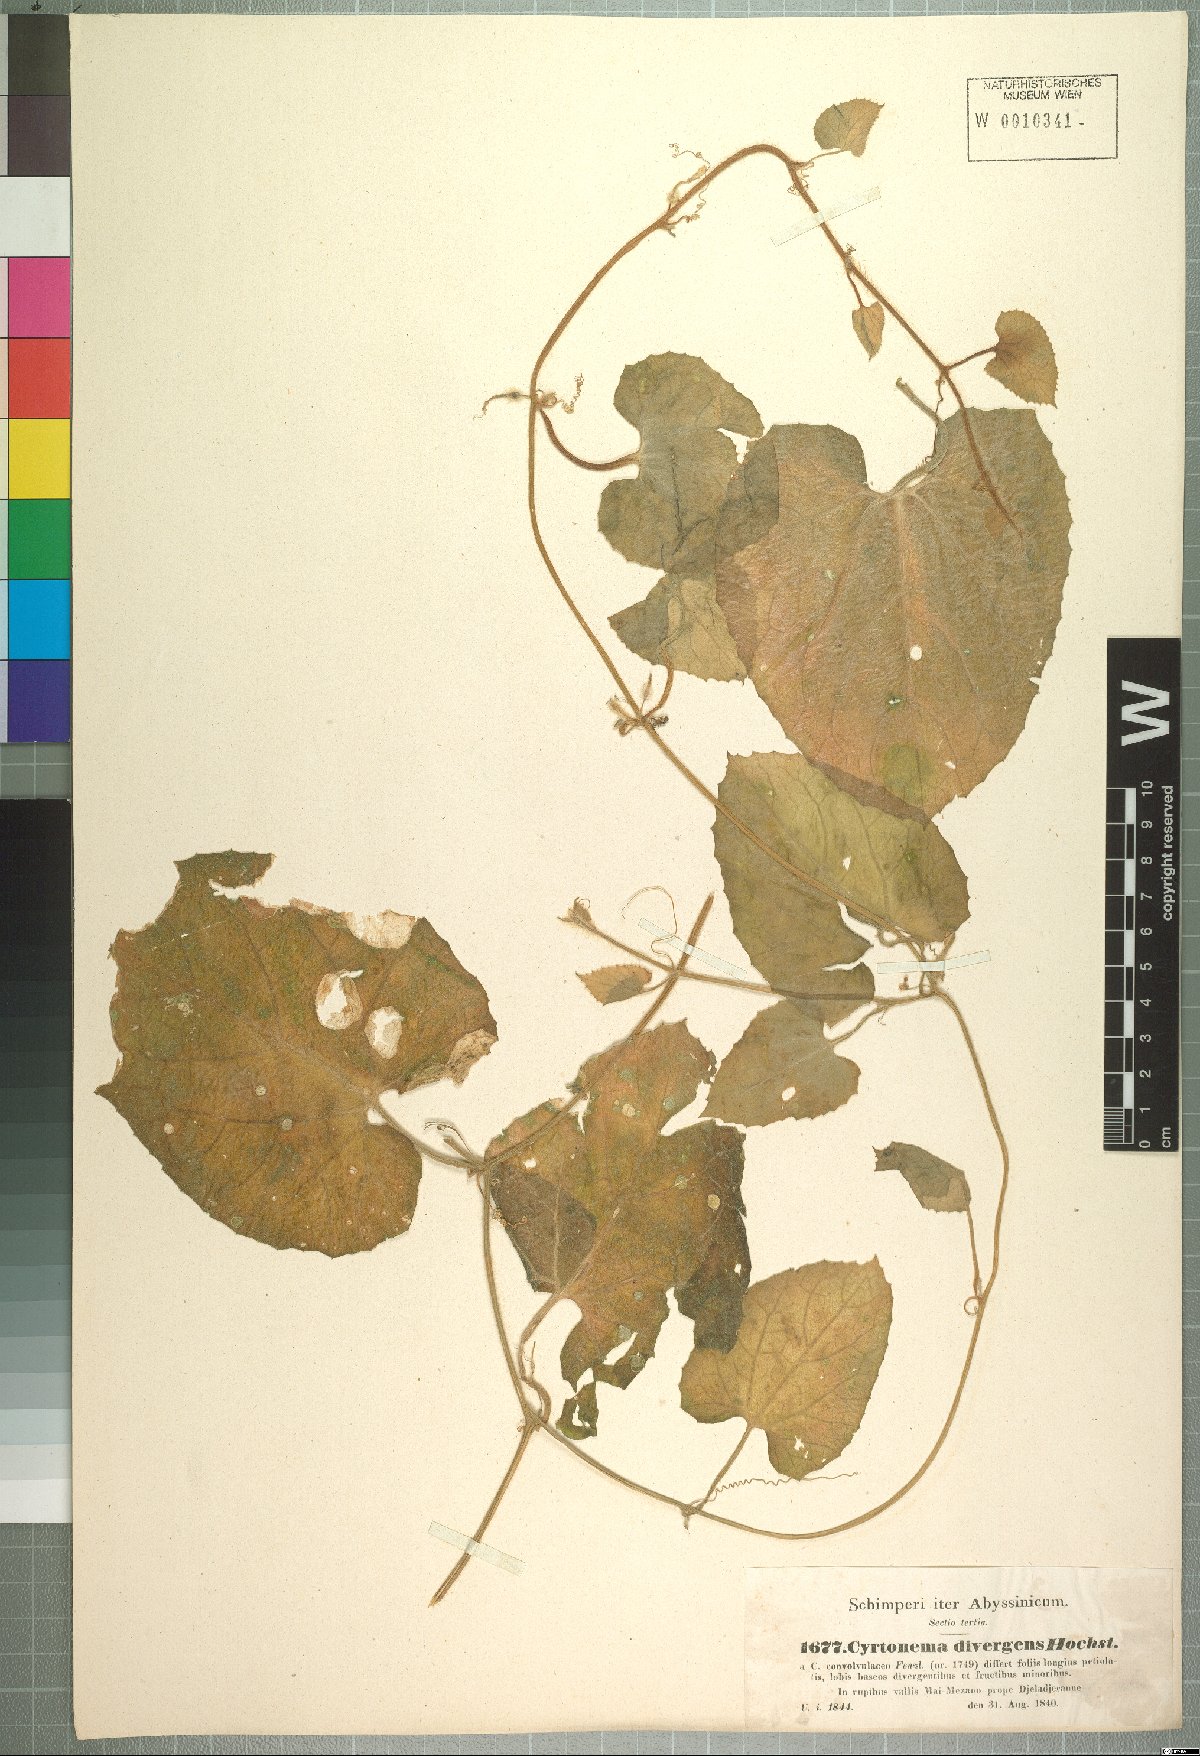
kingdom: Plantae
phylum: Tracheophyta
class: Magnoliopsida
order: Cucurbitales
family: Cucurbitaceae
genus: Kedrostis
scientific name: Kedrostis foetidissima
